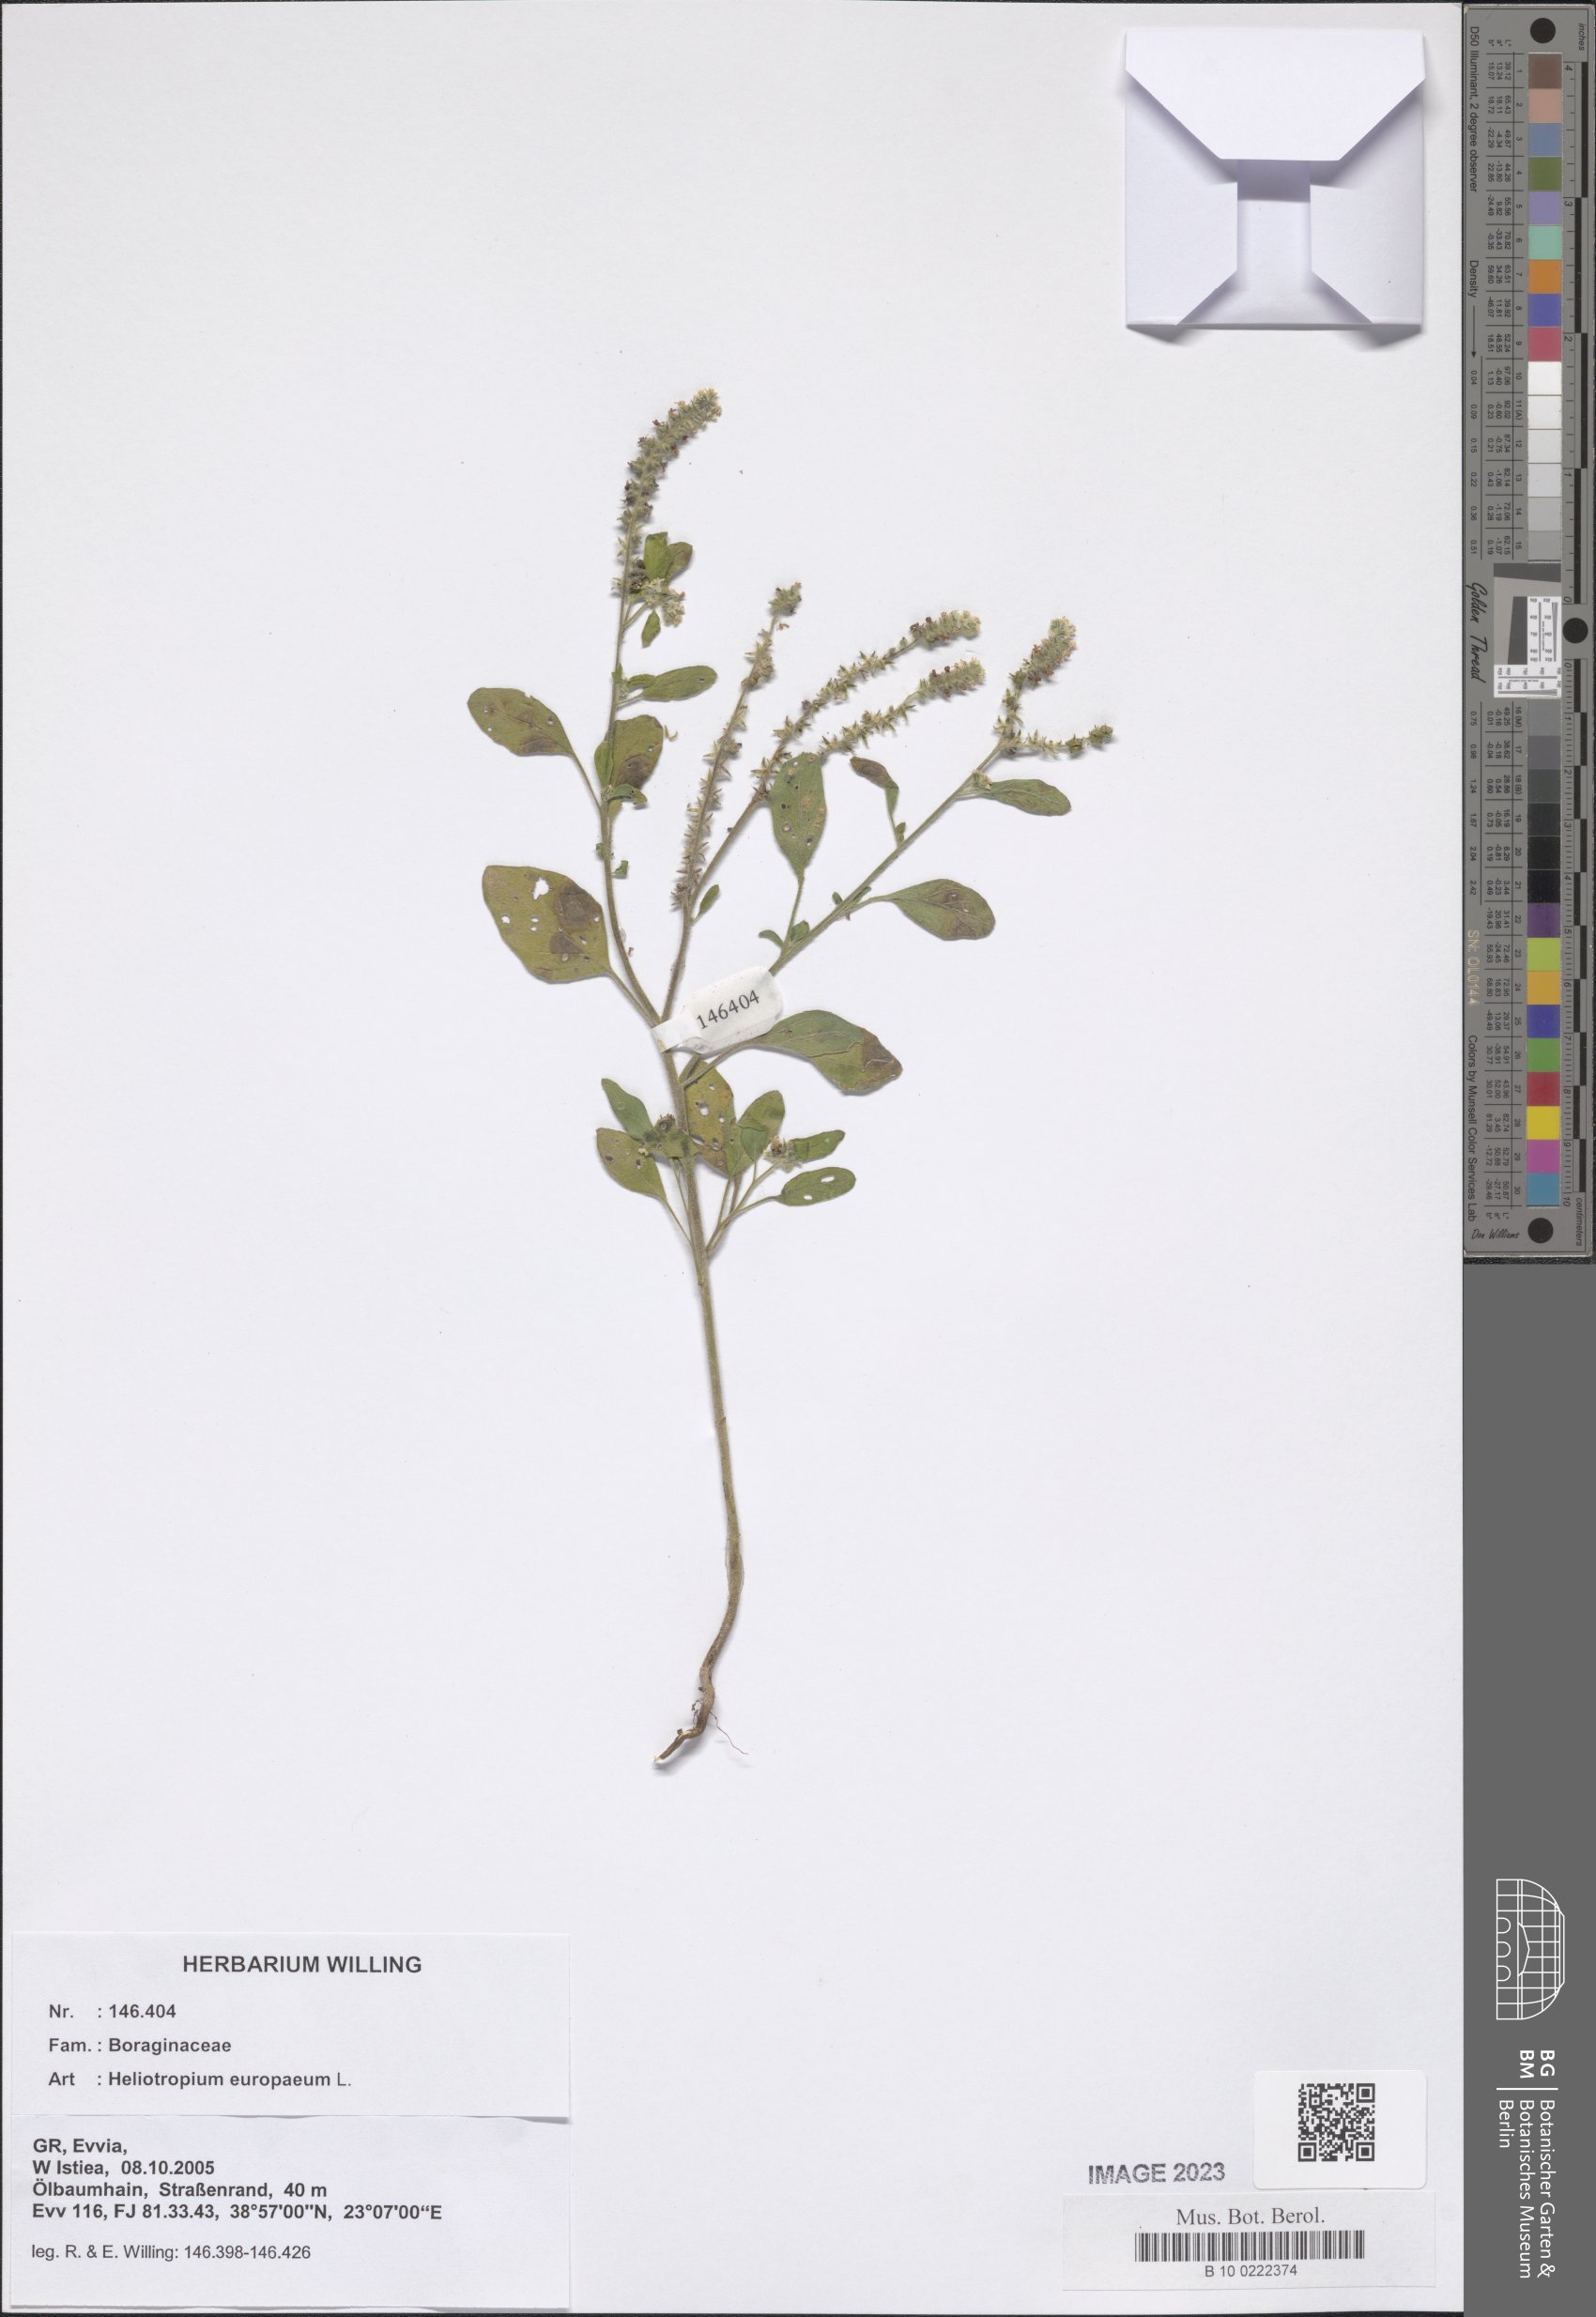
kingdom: Plantae
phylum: Tracheophyta
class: Magnoliopsida
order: Boraginales
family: Heliotropiaceae
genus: Heliotropium
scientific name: Heliotropium europaeum
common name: European heliotrope
